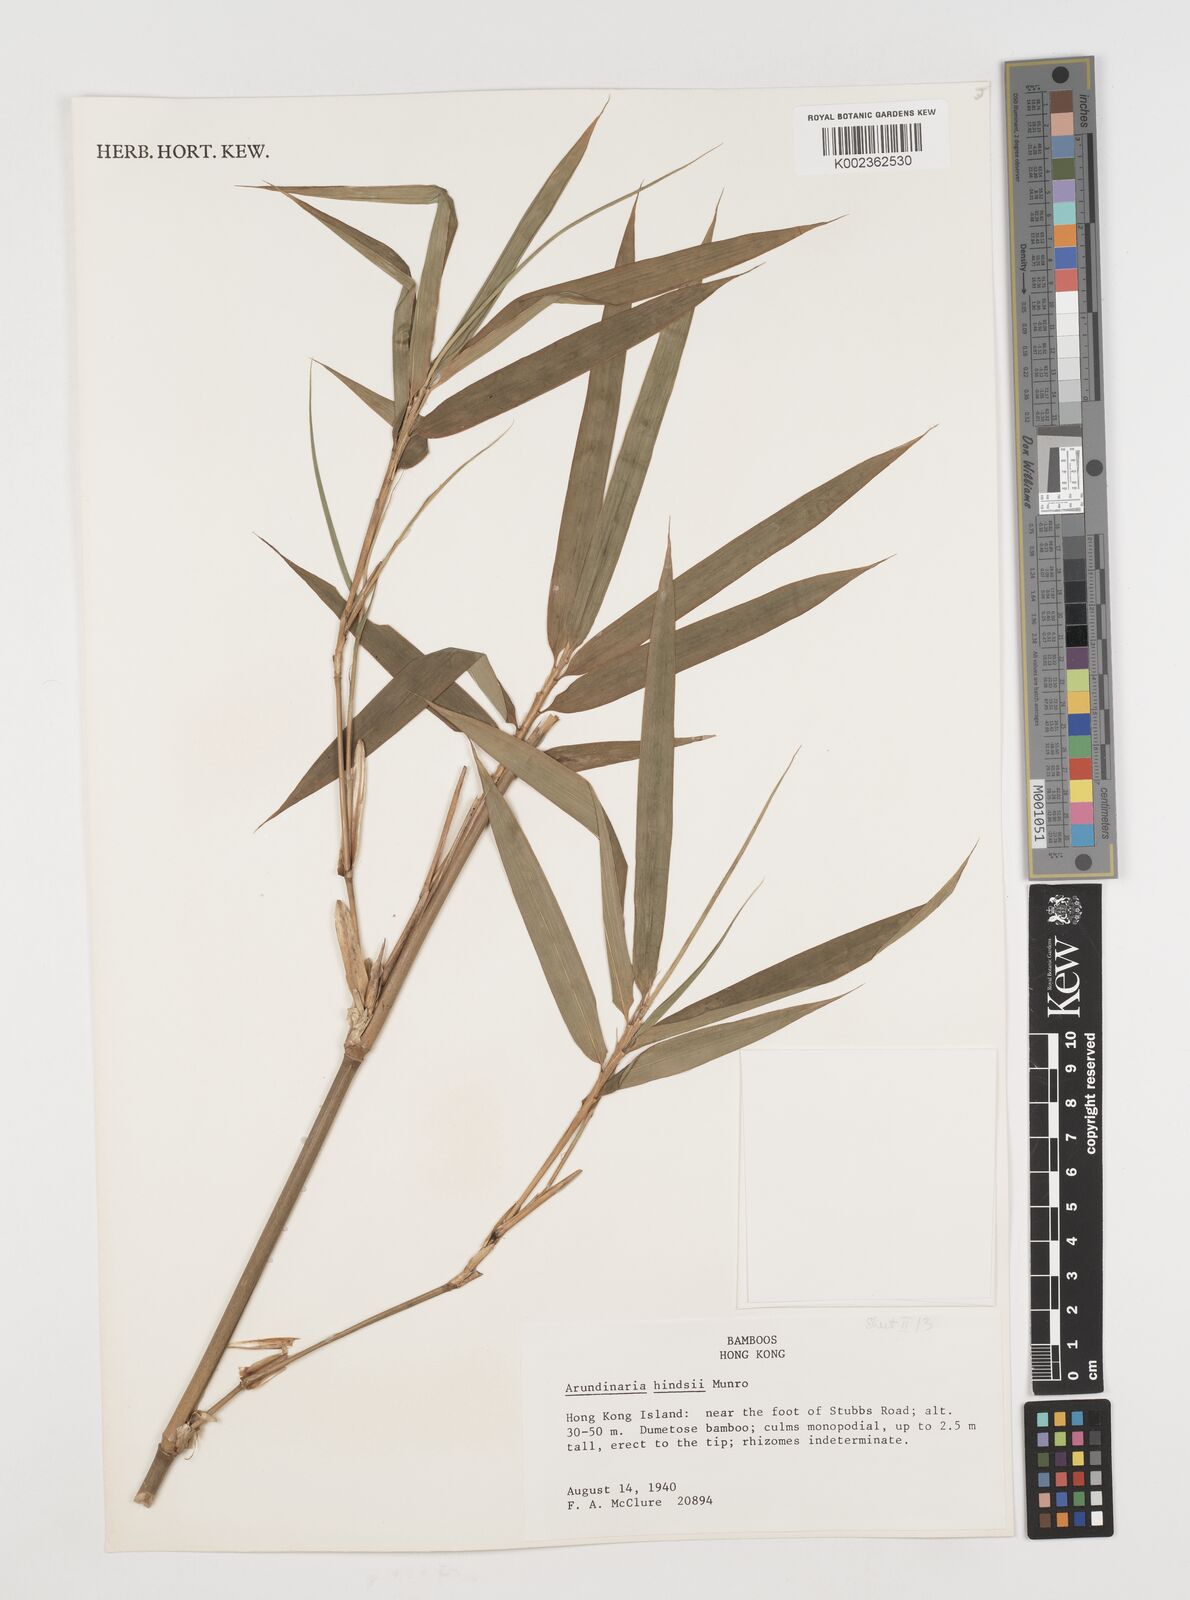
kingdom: Plantae
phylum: Tracheophyta
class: Liliopsida
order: Poales
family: Poaceae
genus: Pseudosasa
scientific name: Pseudosasa hindsii
